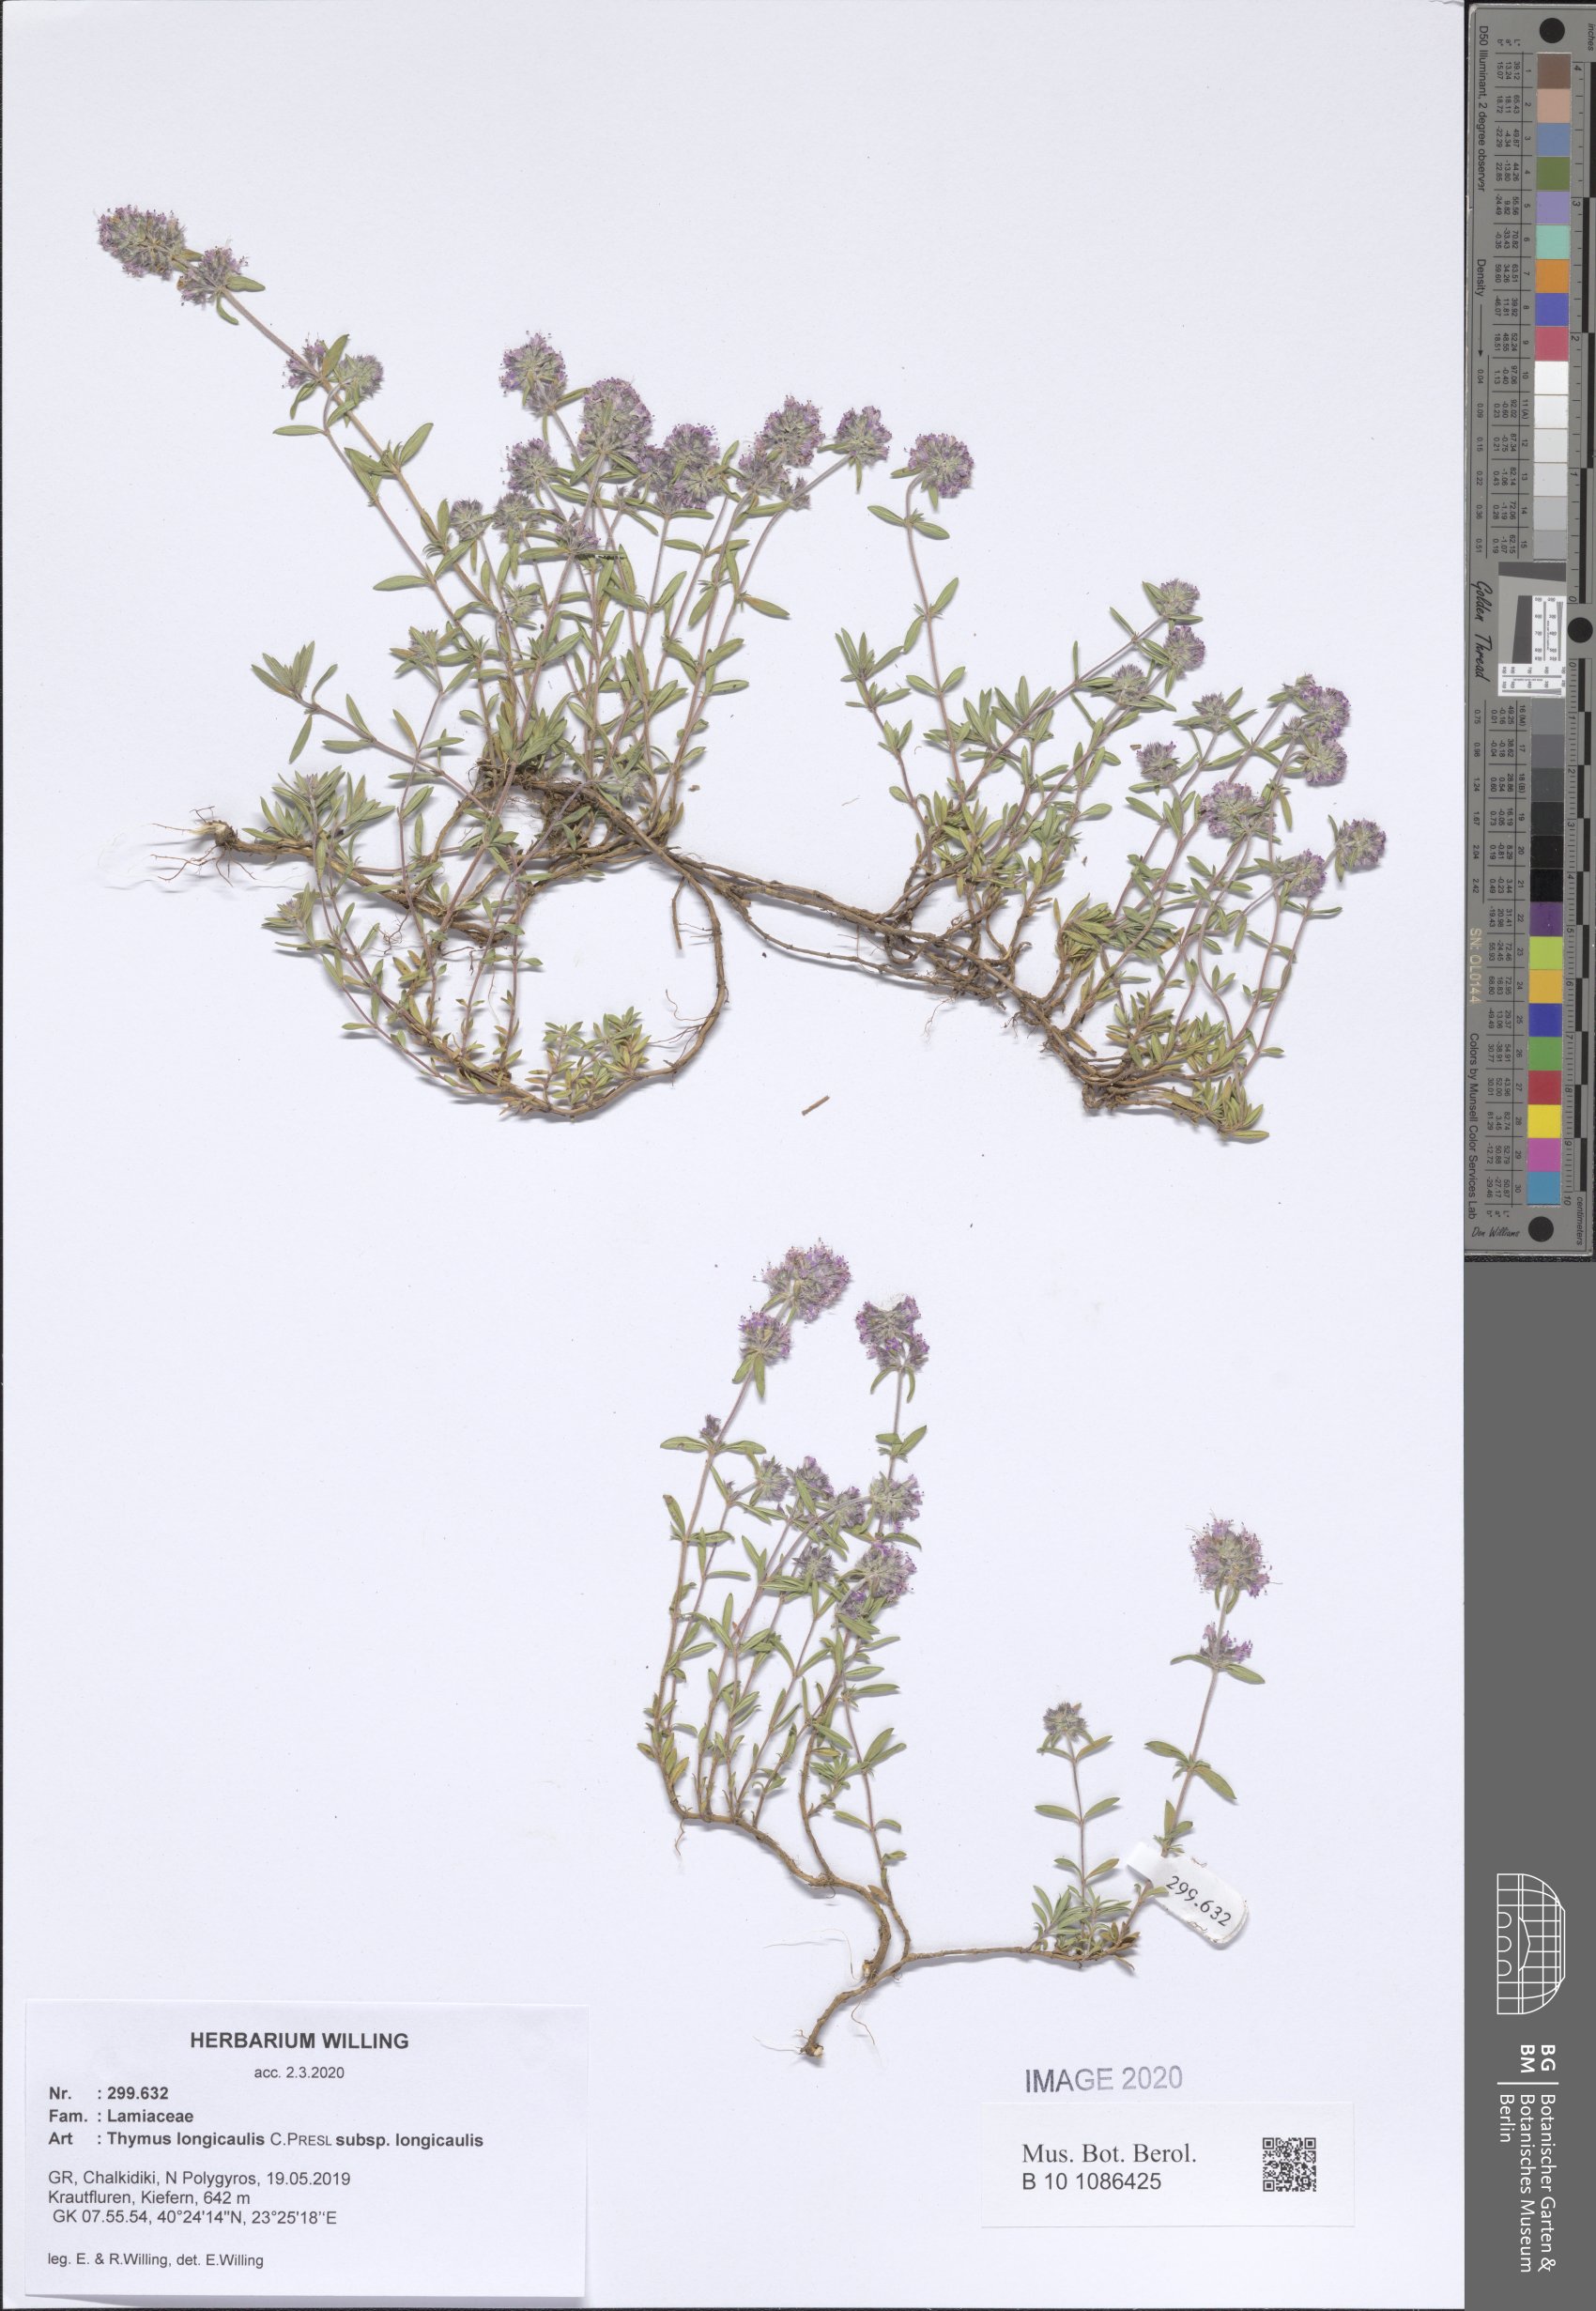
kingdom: Plantae
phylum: Tracheophyta
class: Magnoliopsida
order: Lamiales
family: Lamiaceae
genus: Thymus
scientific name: Thymus longicaulis
